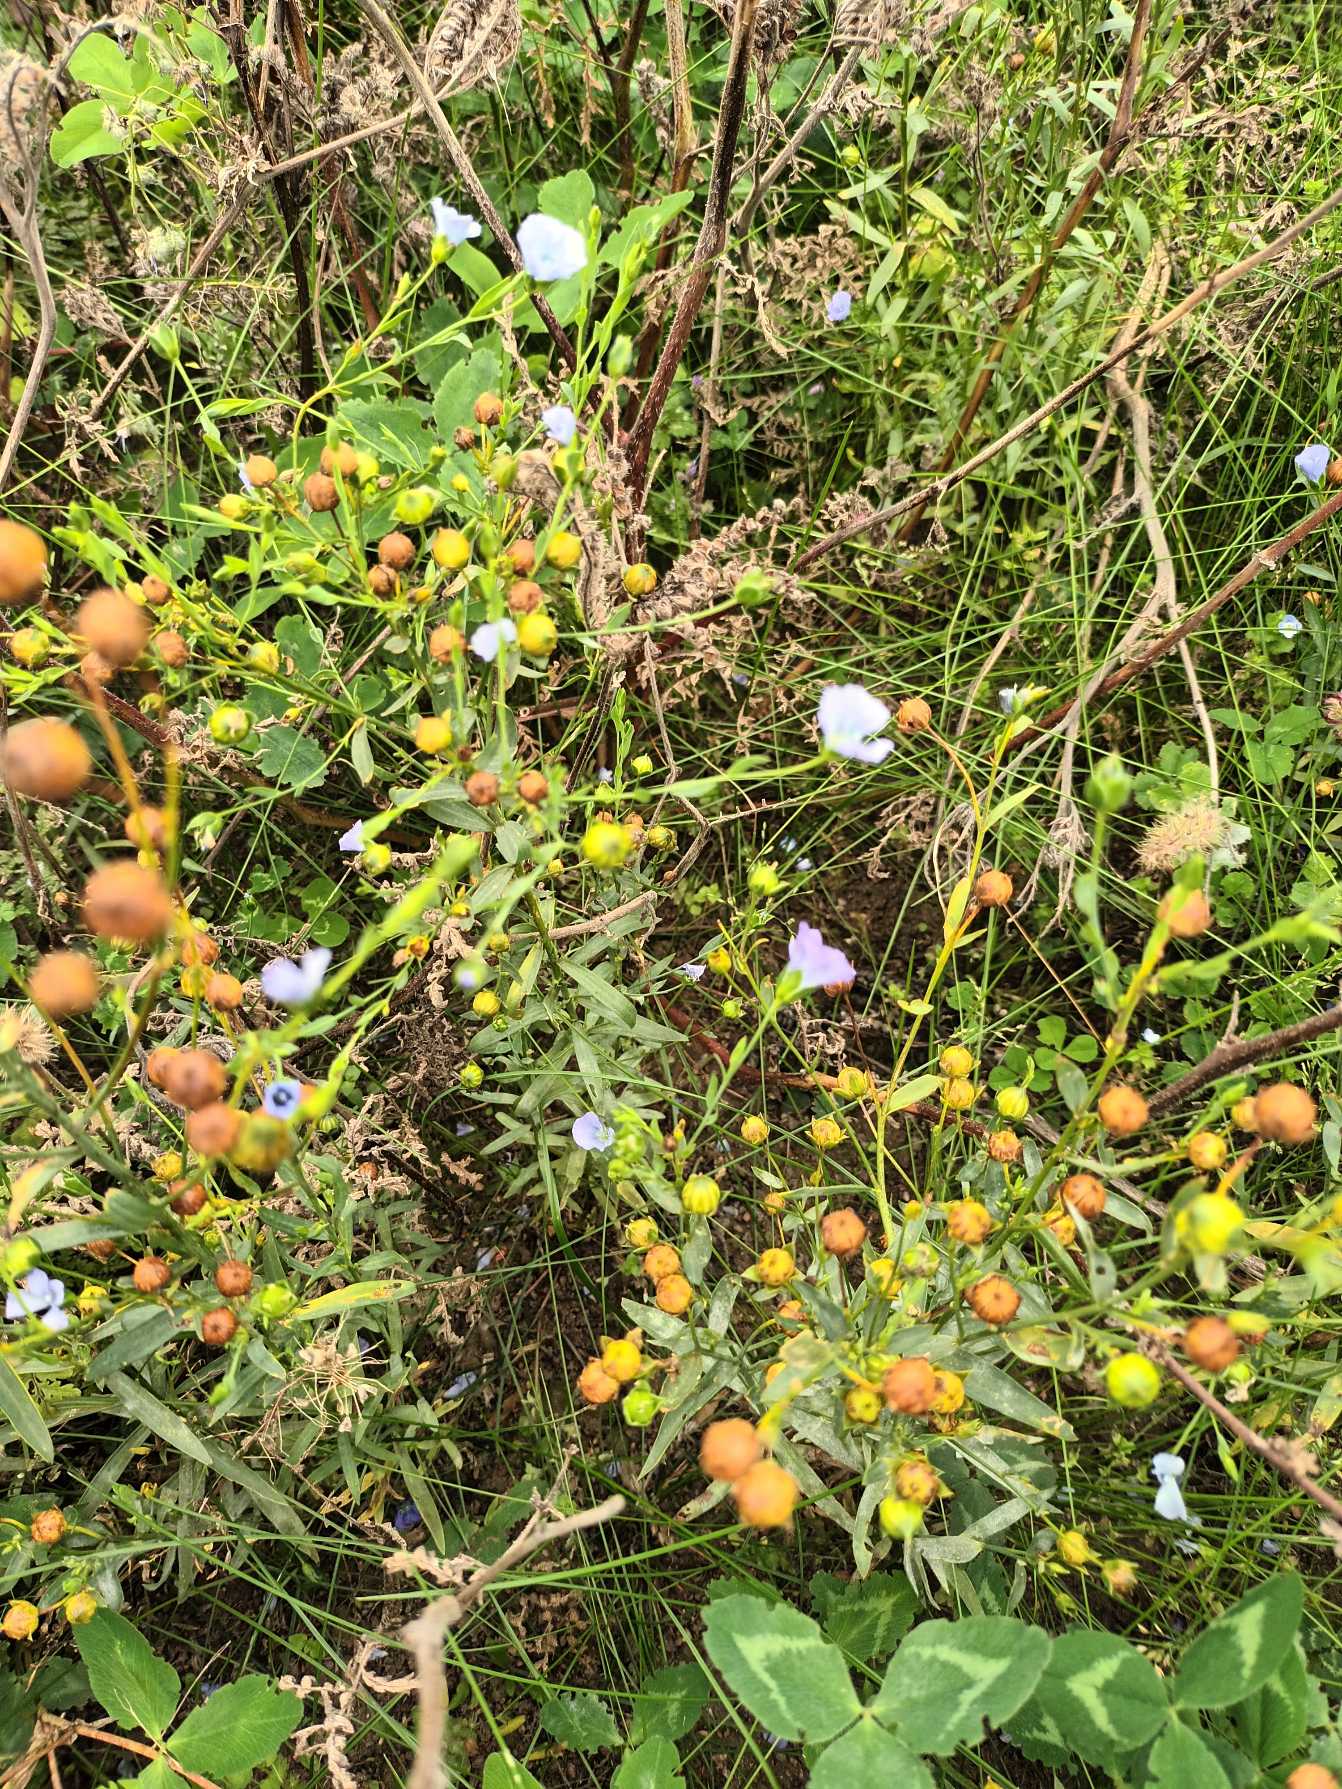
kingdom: Plantae
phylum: Tracheophyta
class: Magnoliopsida
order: Malpighiales
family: Linaceae
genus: Linum
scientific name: Linum usitatissimum
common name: Almindelig hør
